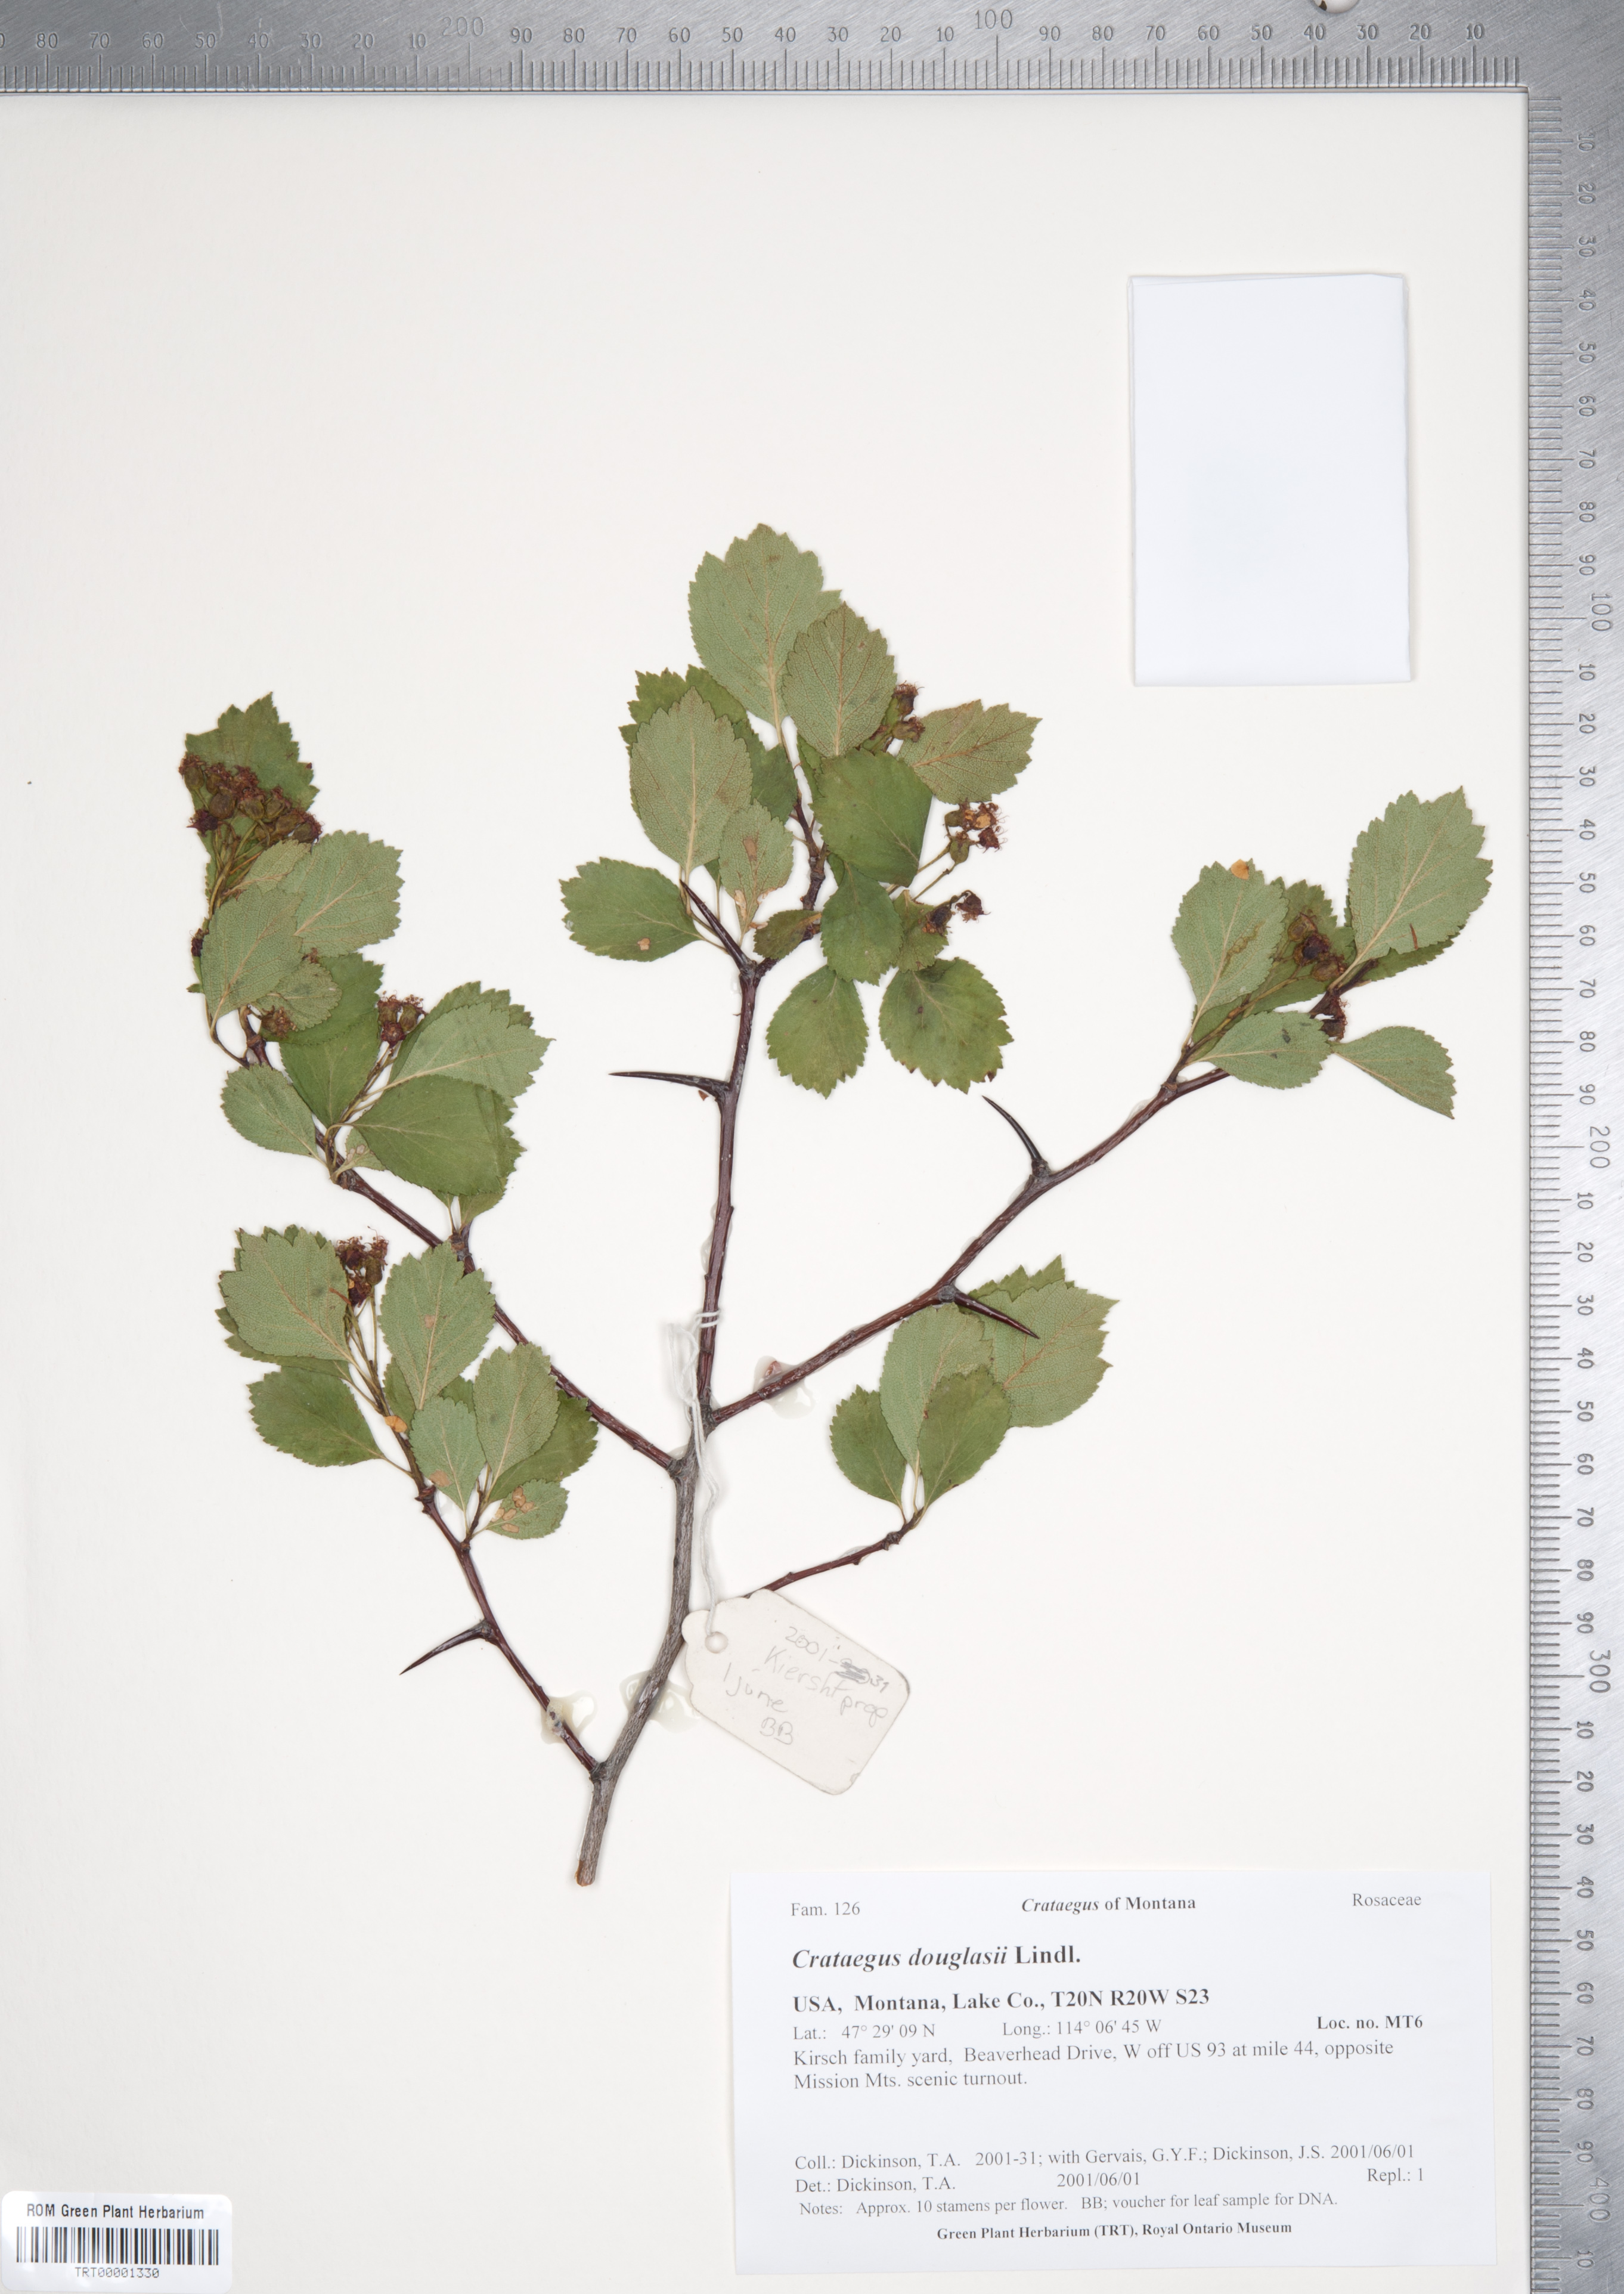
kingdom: Plantae
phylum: Tracheophyta
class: Magnoliopsida
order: Rosales
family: Rosaceae
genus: Crataegus
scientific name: Crataegus douglasii
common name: Black hawthorn
